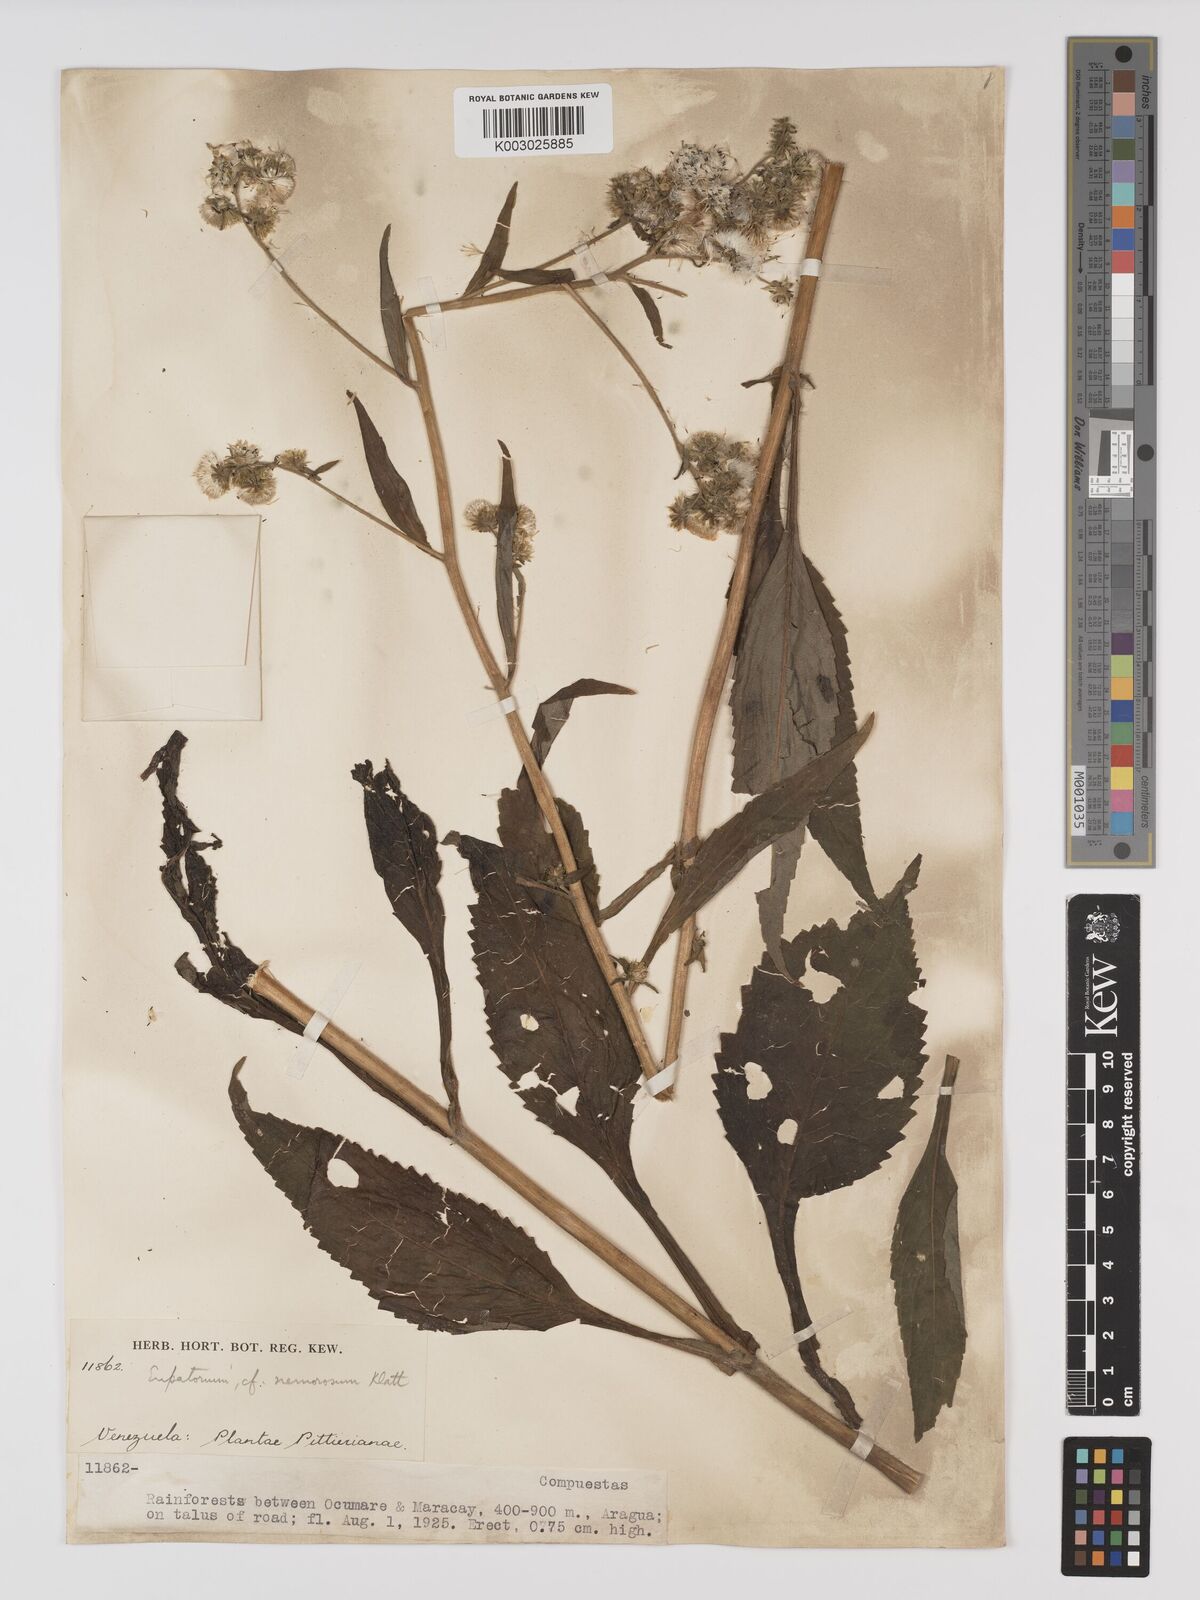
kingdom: Plantae
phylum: Tracheophyta
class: Magnoliopsida
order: Asterales
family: Asteraceae
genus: Polyanthina
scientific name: Polyanthina nemorosa
